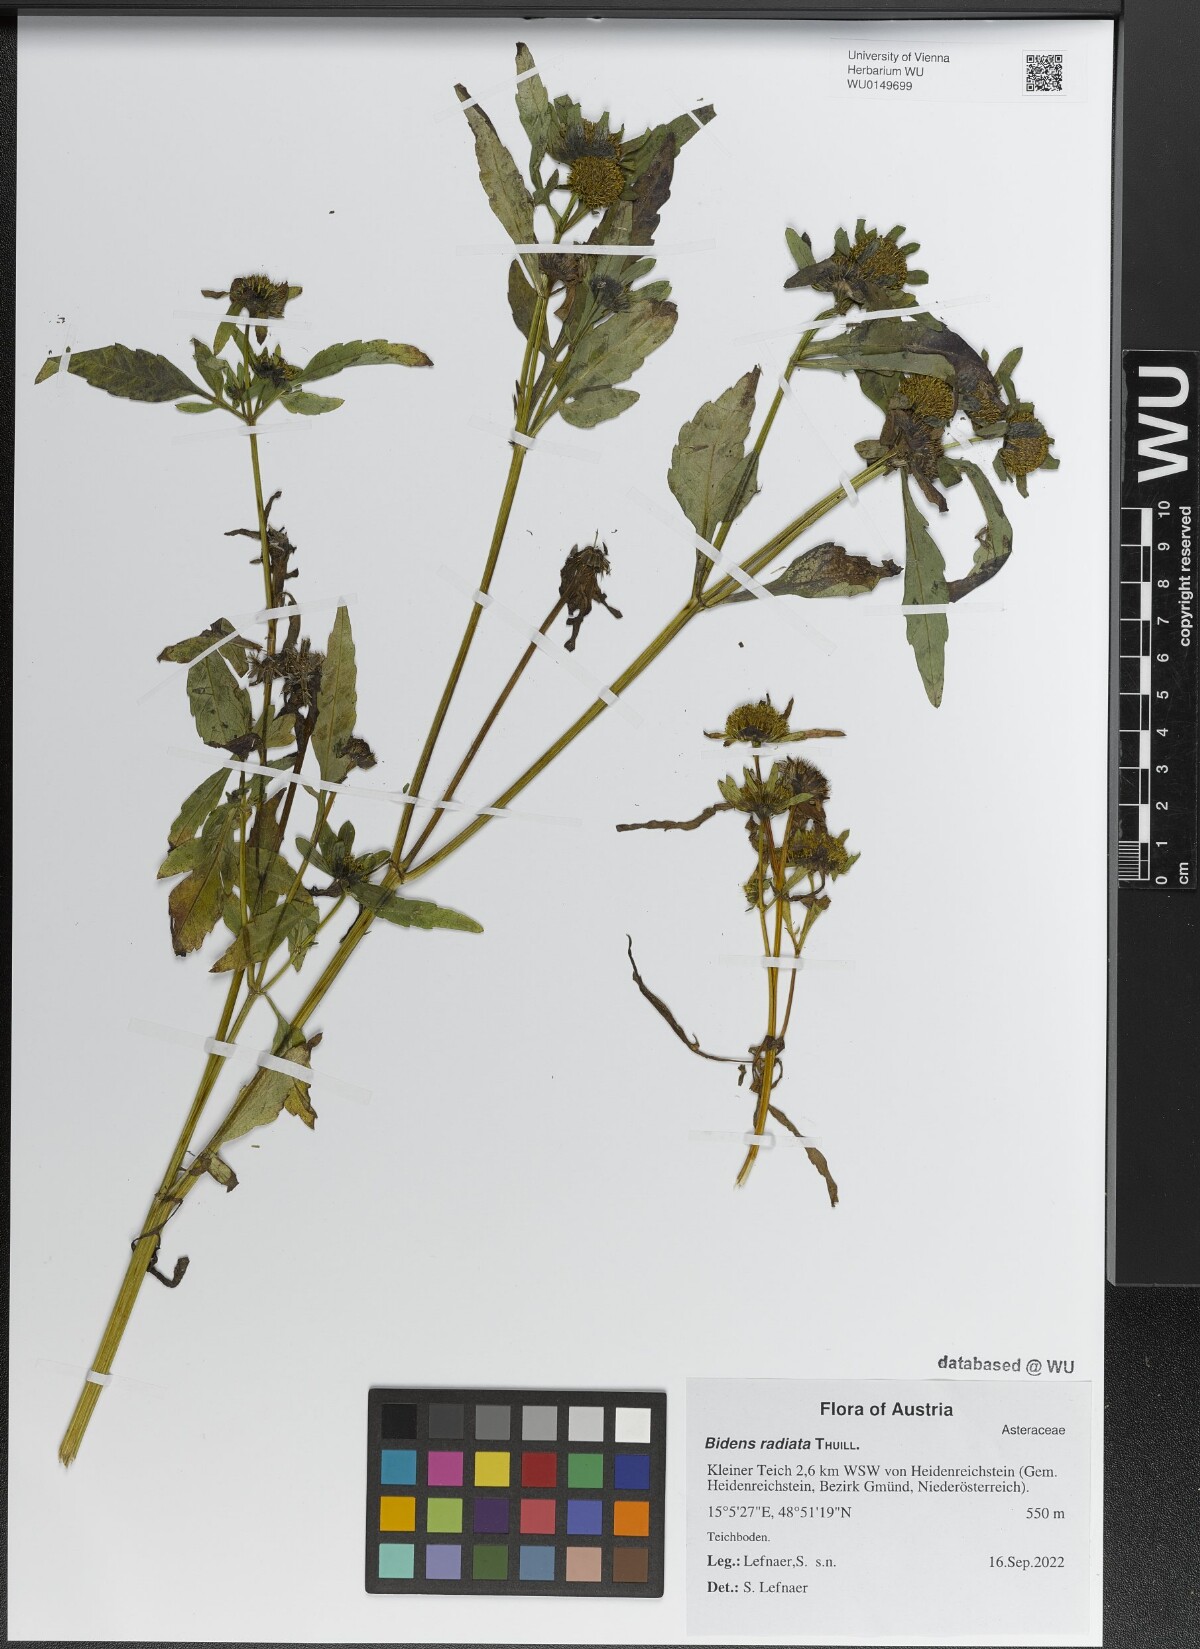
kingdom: Plantae
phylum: Tracheophyta
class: Magnoliopsida
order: Asterales
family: Asteraceae
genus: Bidens
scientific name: Bidens radiata
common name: Radiating bur-marigold
